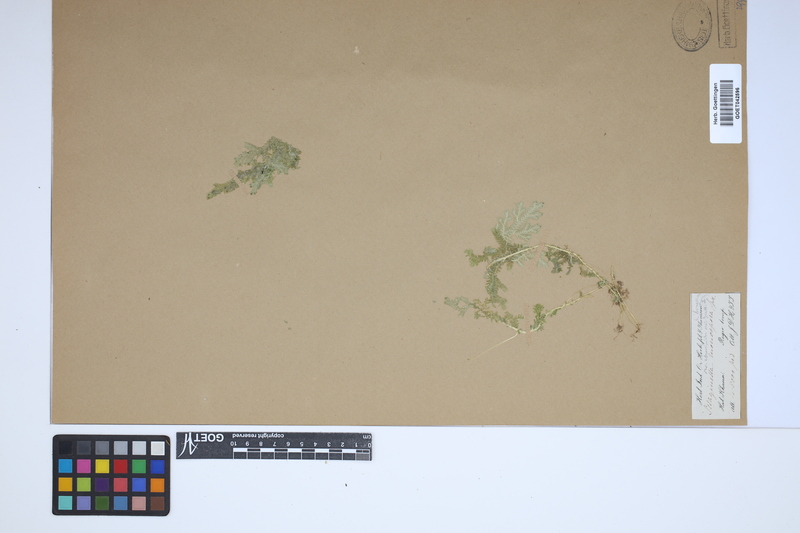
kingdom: Plantae
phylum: Tracheophyta
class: Lycopodiopsida
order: Selaginellales
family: Selaginellaceae
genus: Selaginella
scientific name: Selaginella monospora
